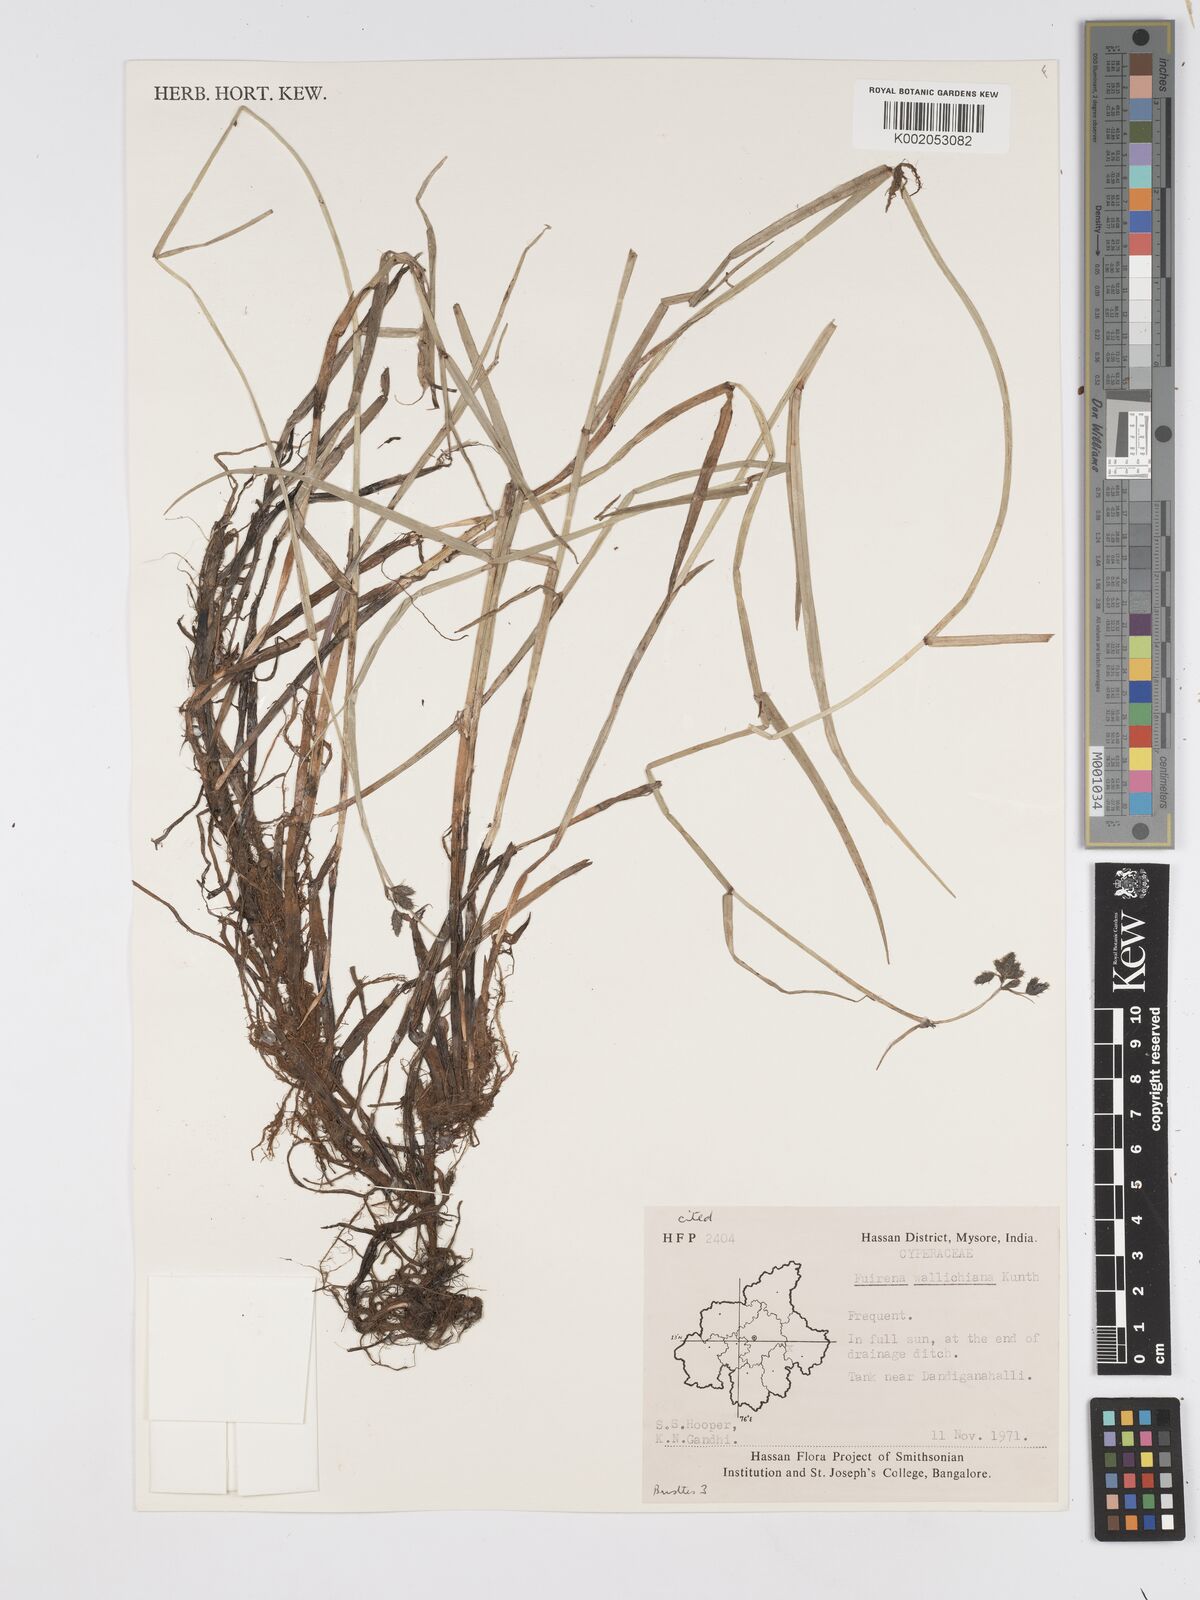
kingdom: Plantae
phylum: Tracheophyta
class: Liliopsida
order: Poales
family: Cyperaceae
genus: Fuirena
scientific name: Fuirena cuspidata
